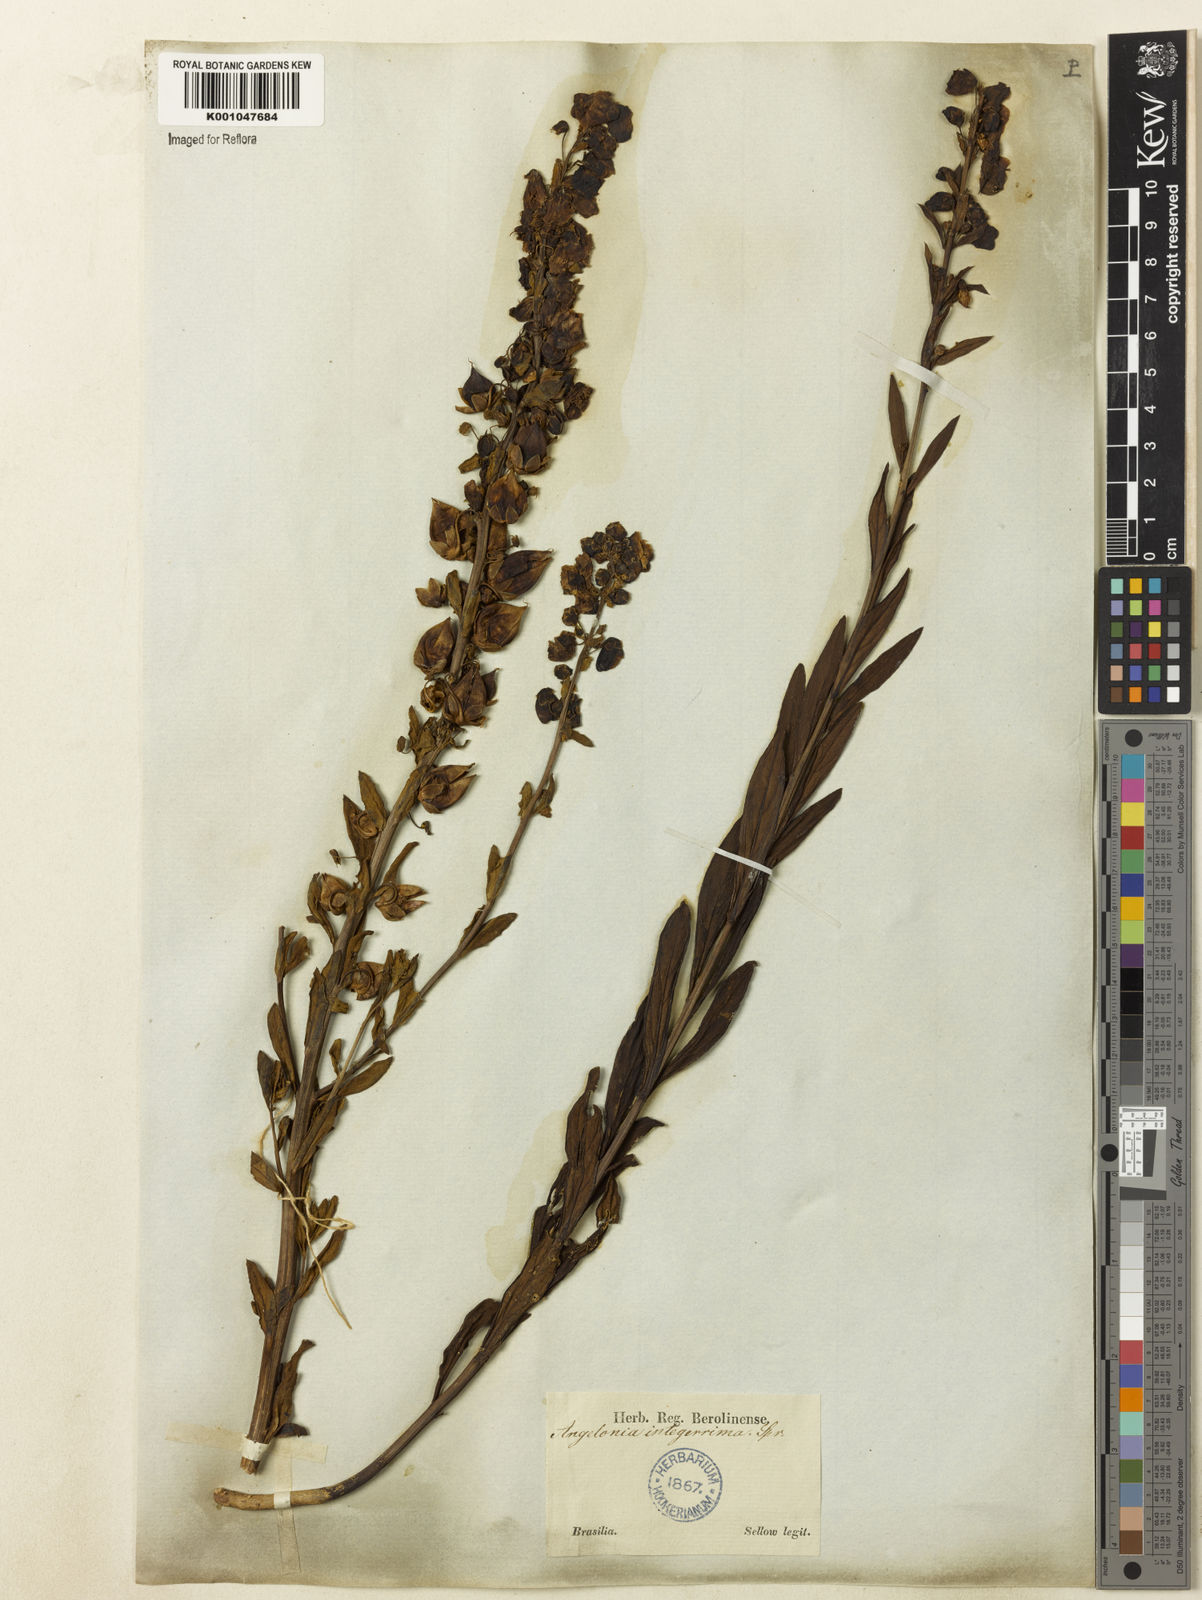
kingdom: Plantae
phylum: Tracheophyta
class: Magnoliopsida
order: Lamiales
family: Plantaginaceae
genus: Angelonia
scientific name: Angelonia integerrima
